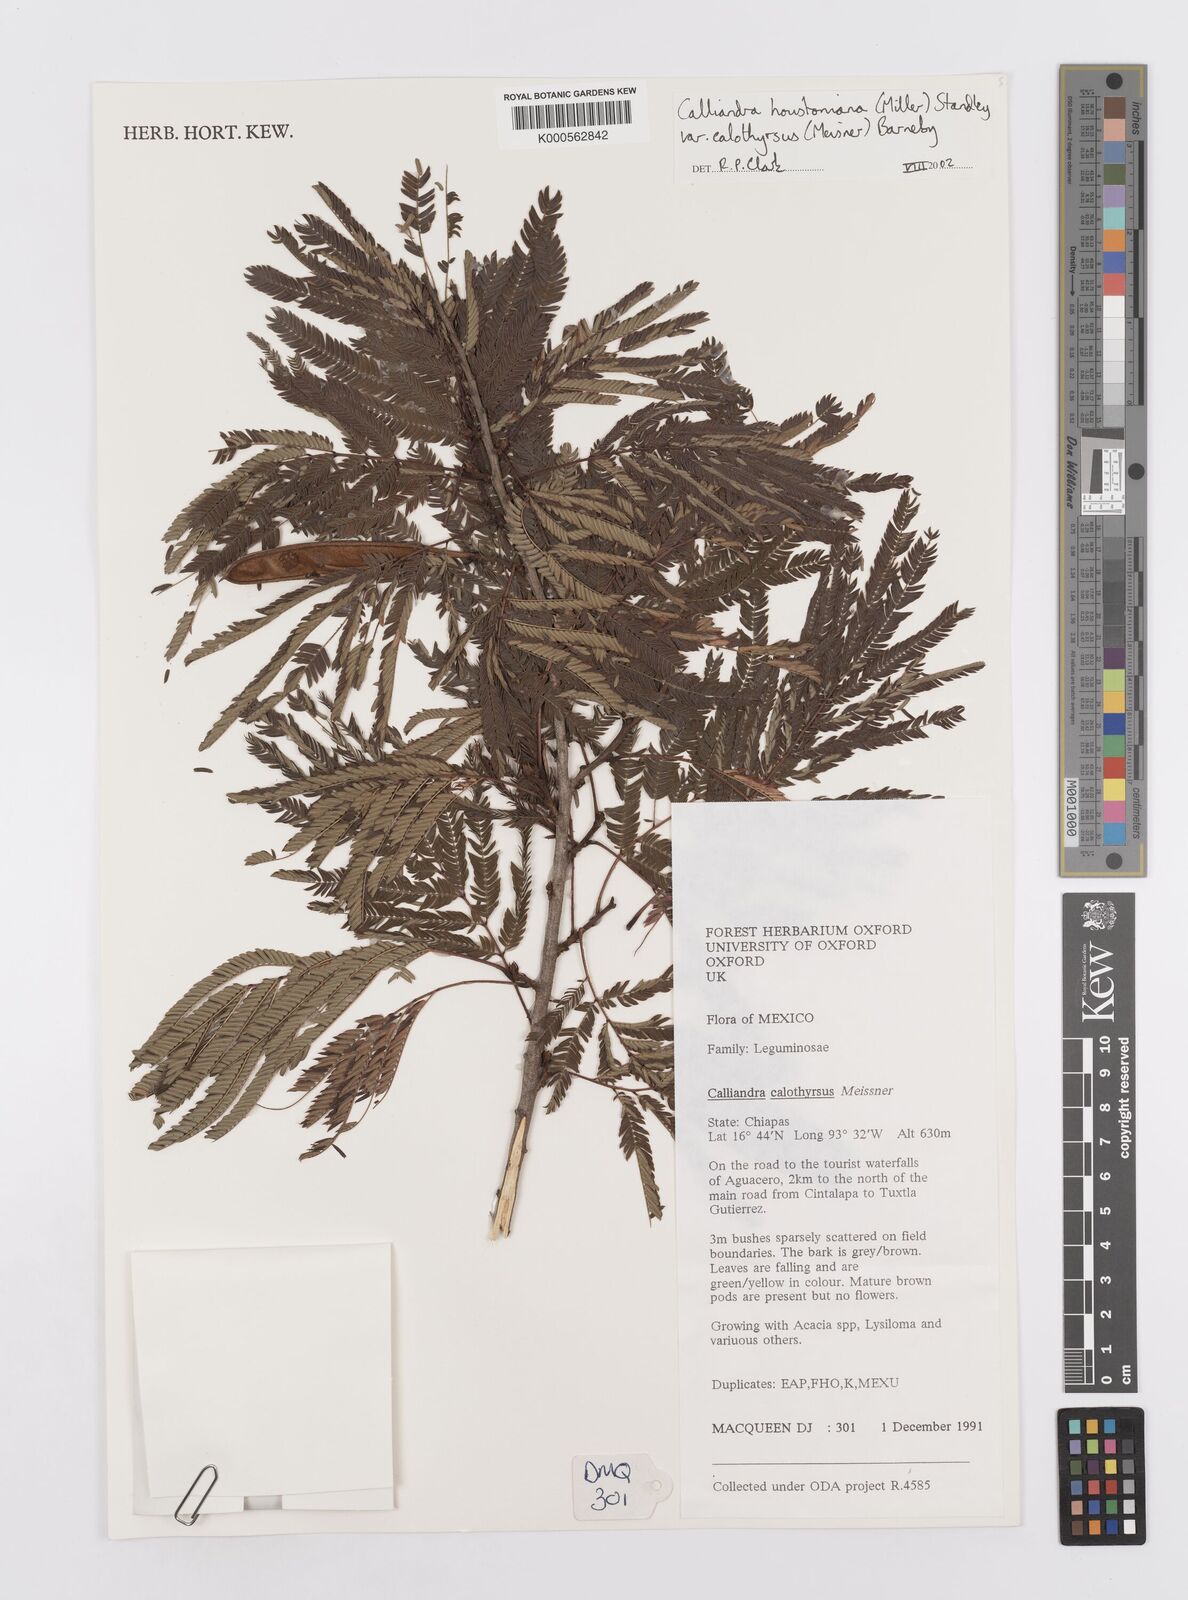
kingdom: Plantae
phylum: Tracheophyta
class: Magnoliopsida
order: Fabales
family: Fabaceae
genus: Calliandra
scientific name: Calliandra houstoniana
